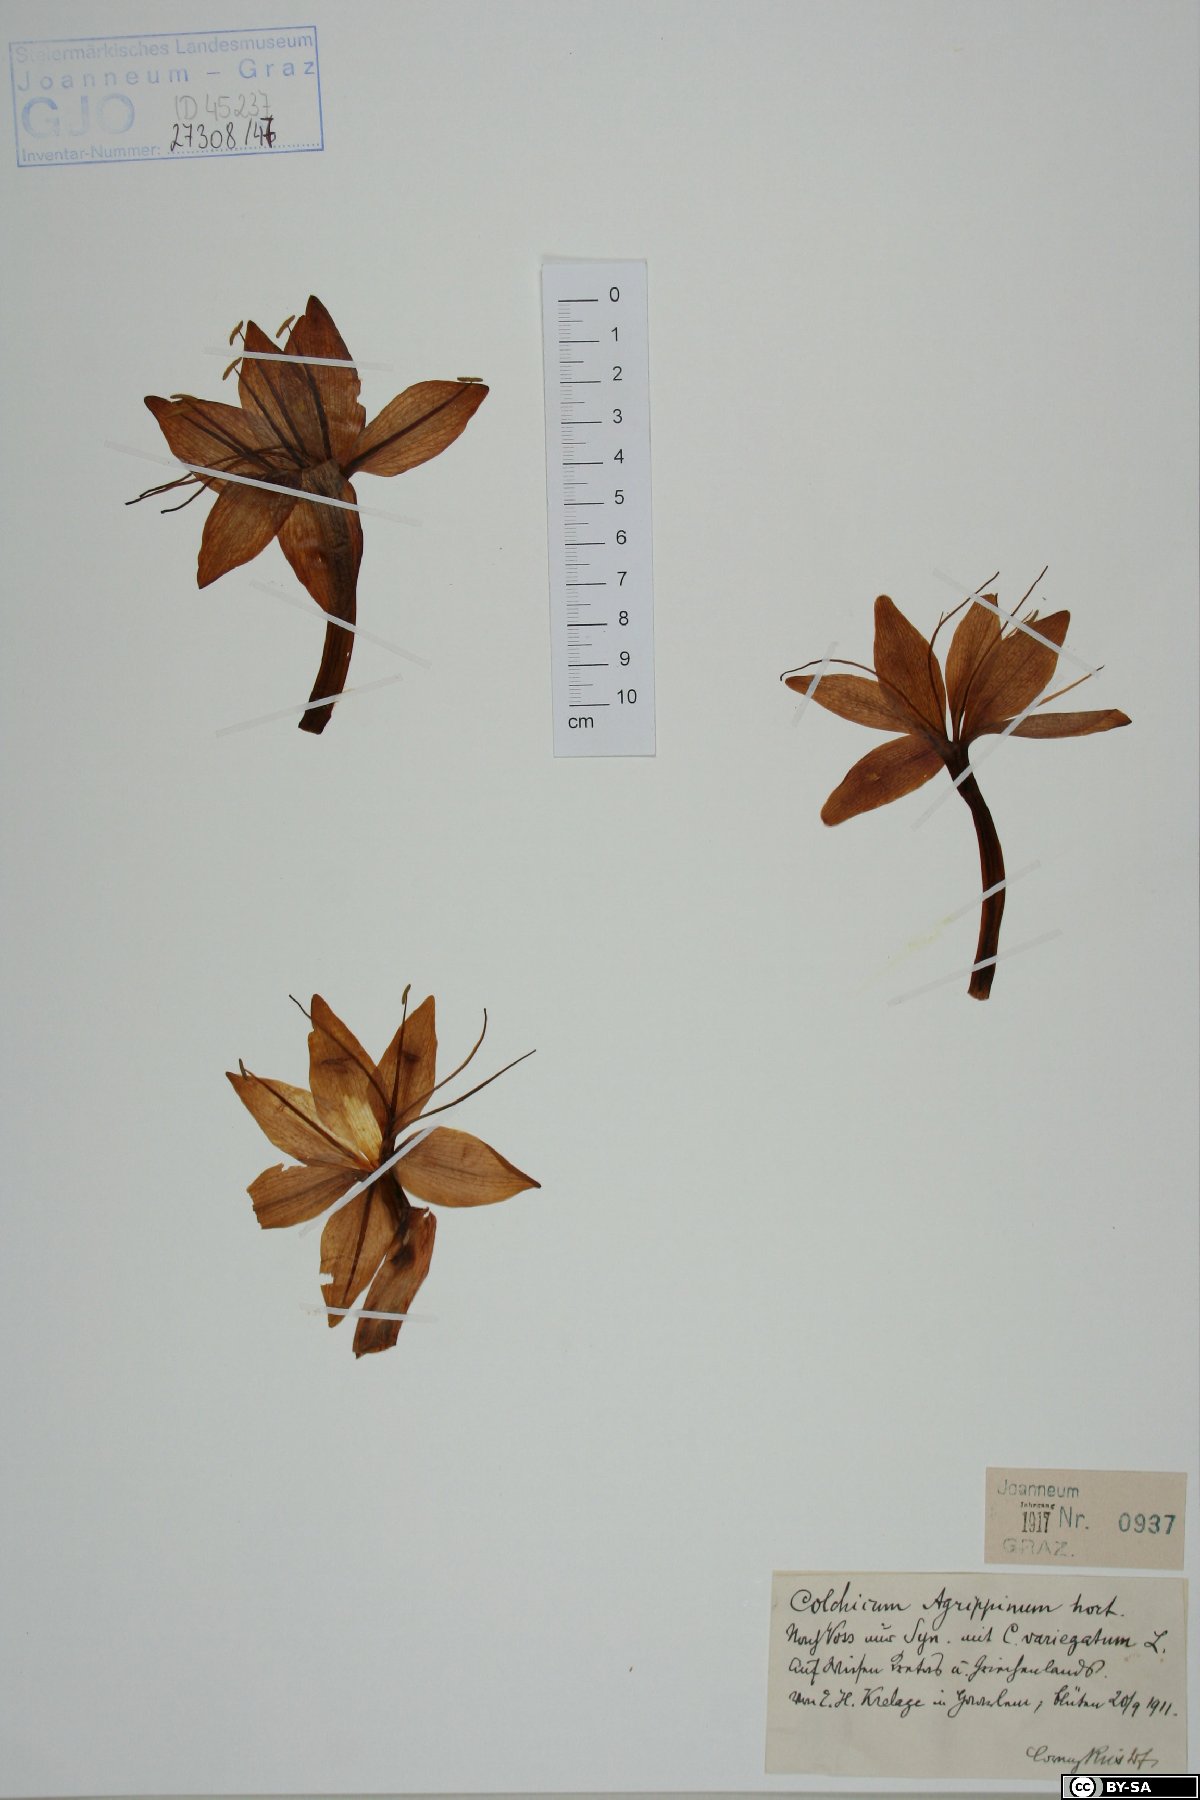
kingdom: Plantae
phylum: Tracheophyta
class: Liliopsida
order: Liliales
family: Colchicaceae
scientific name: Colchicaceae
